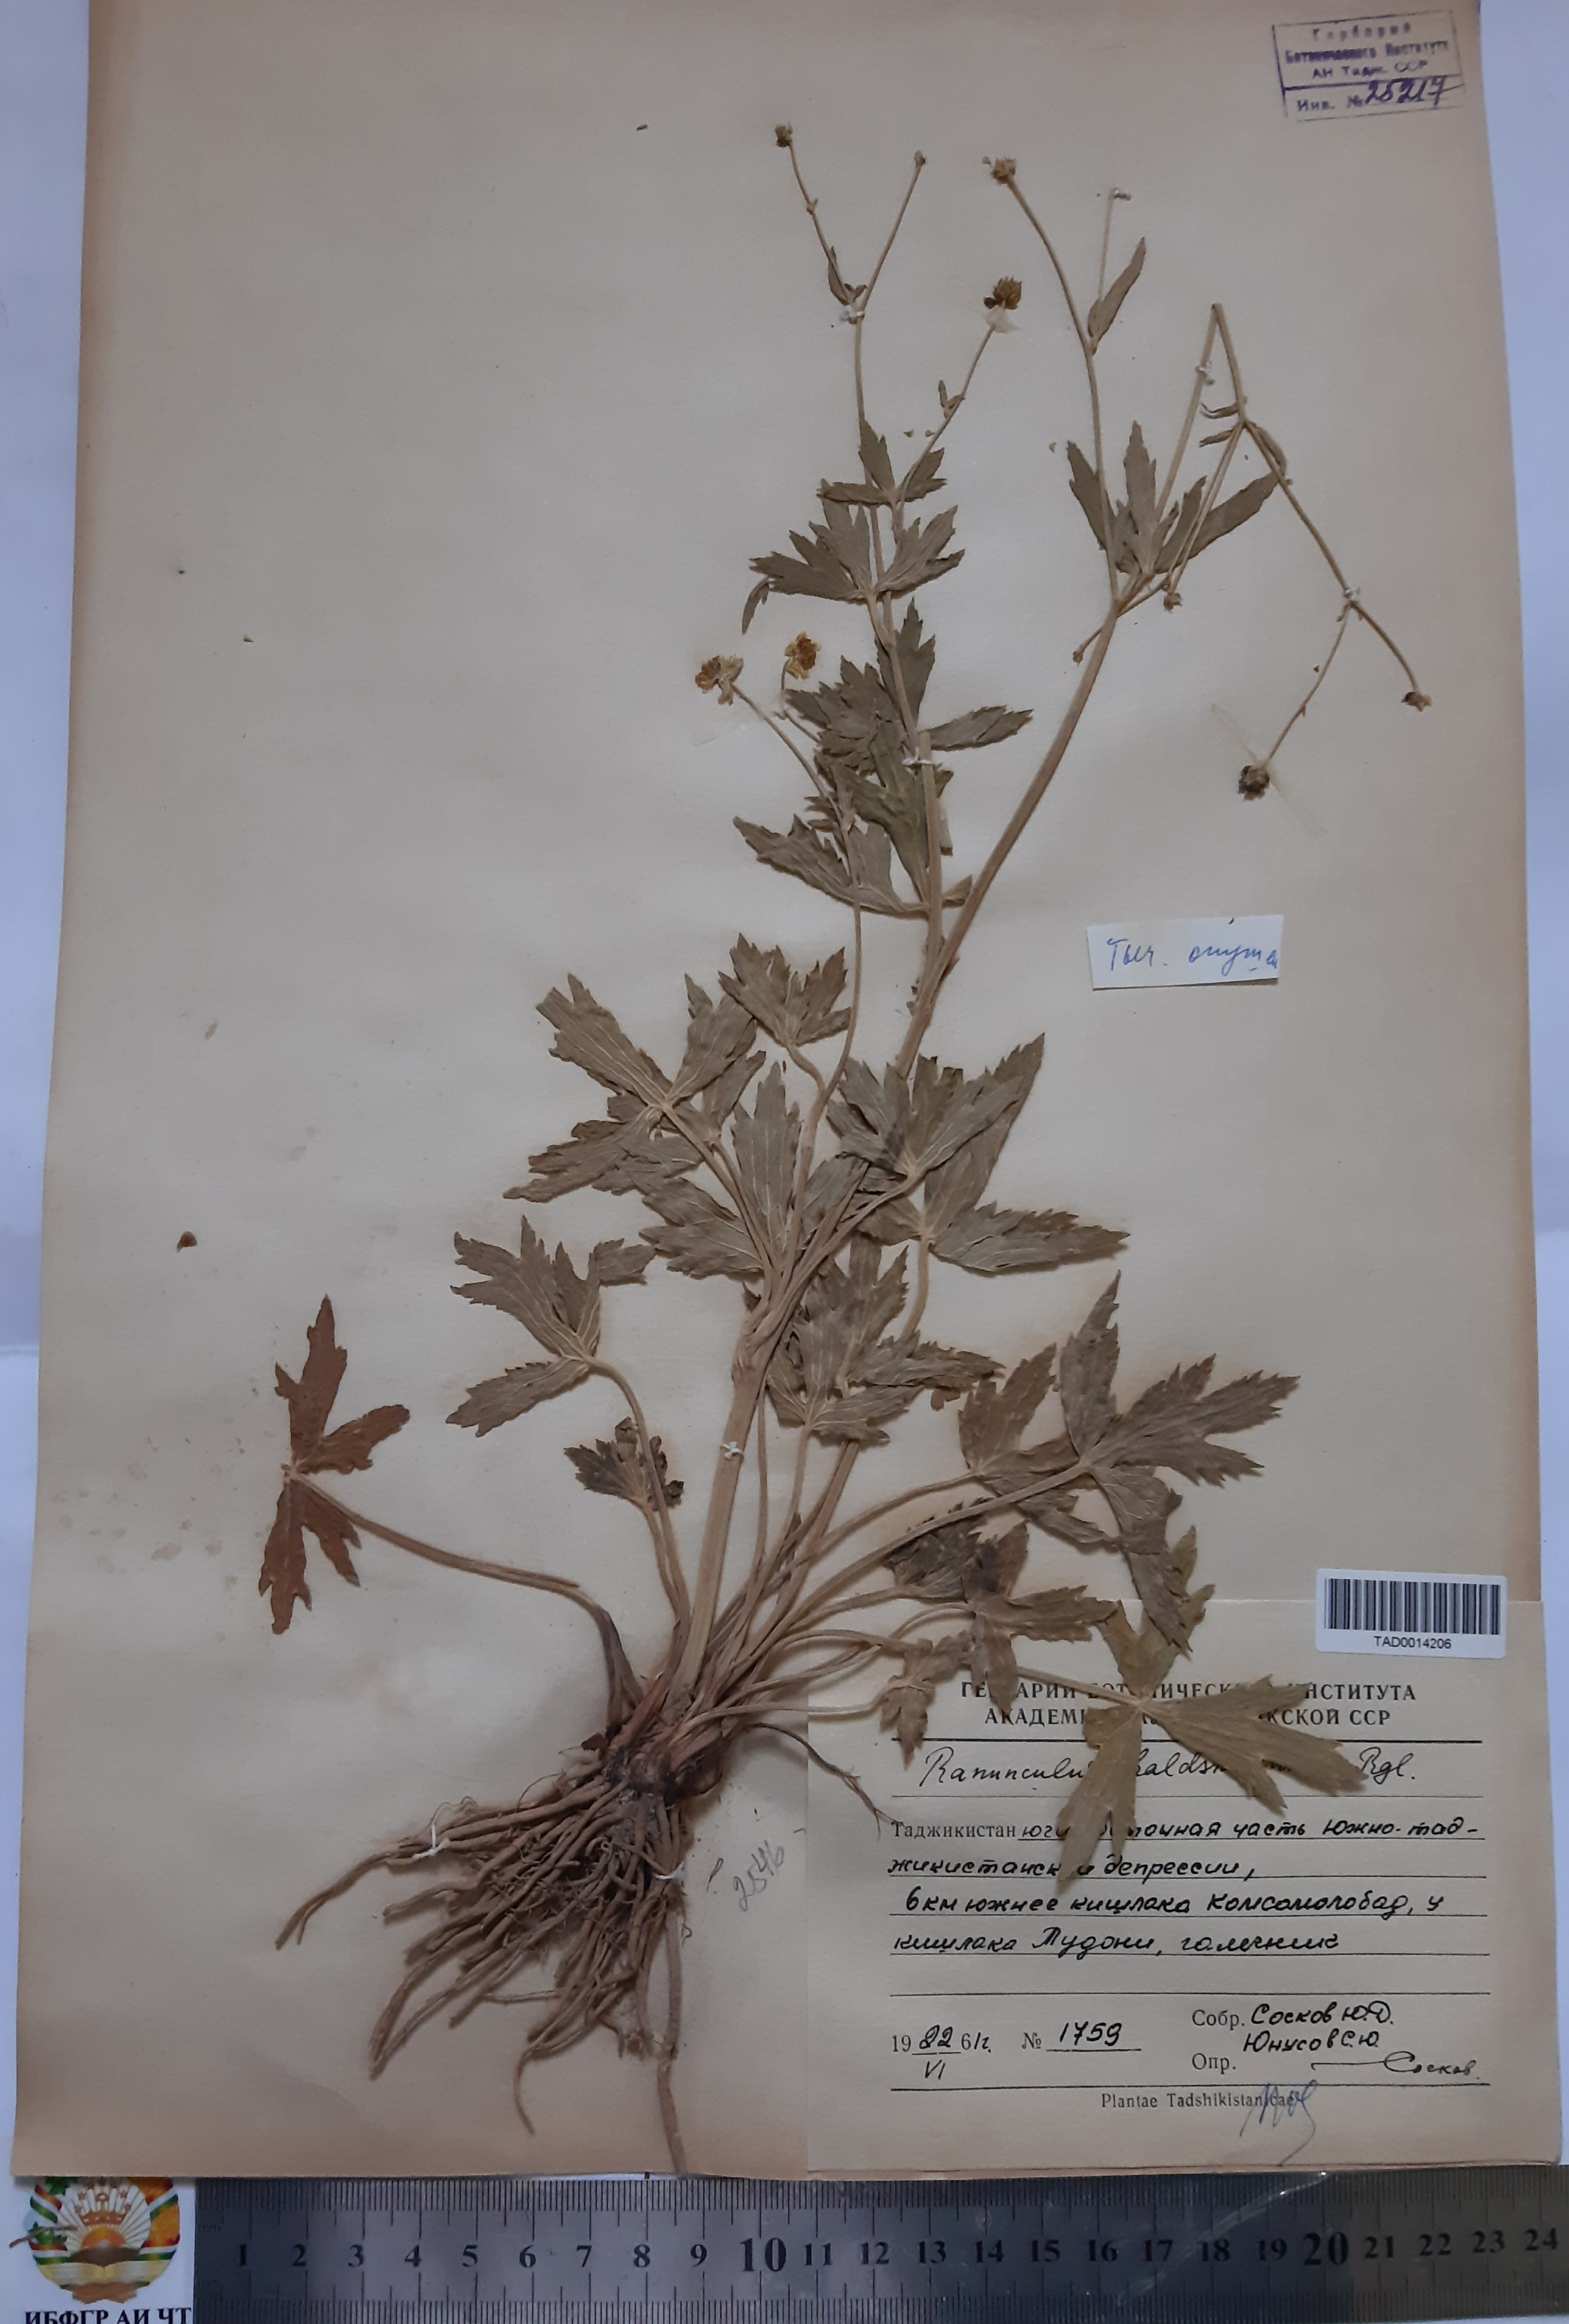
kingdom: Plantae
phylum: Tracheophyta
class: Magnoliopsida
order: Ranunculales
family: Ranunculaceae
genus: Ranunculus
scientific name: Ranunculus baldshuanicus
